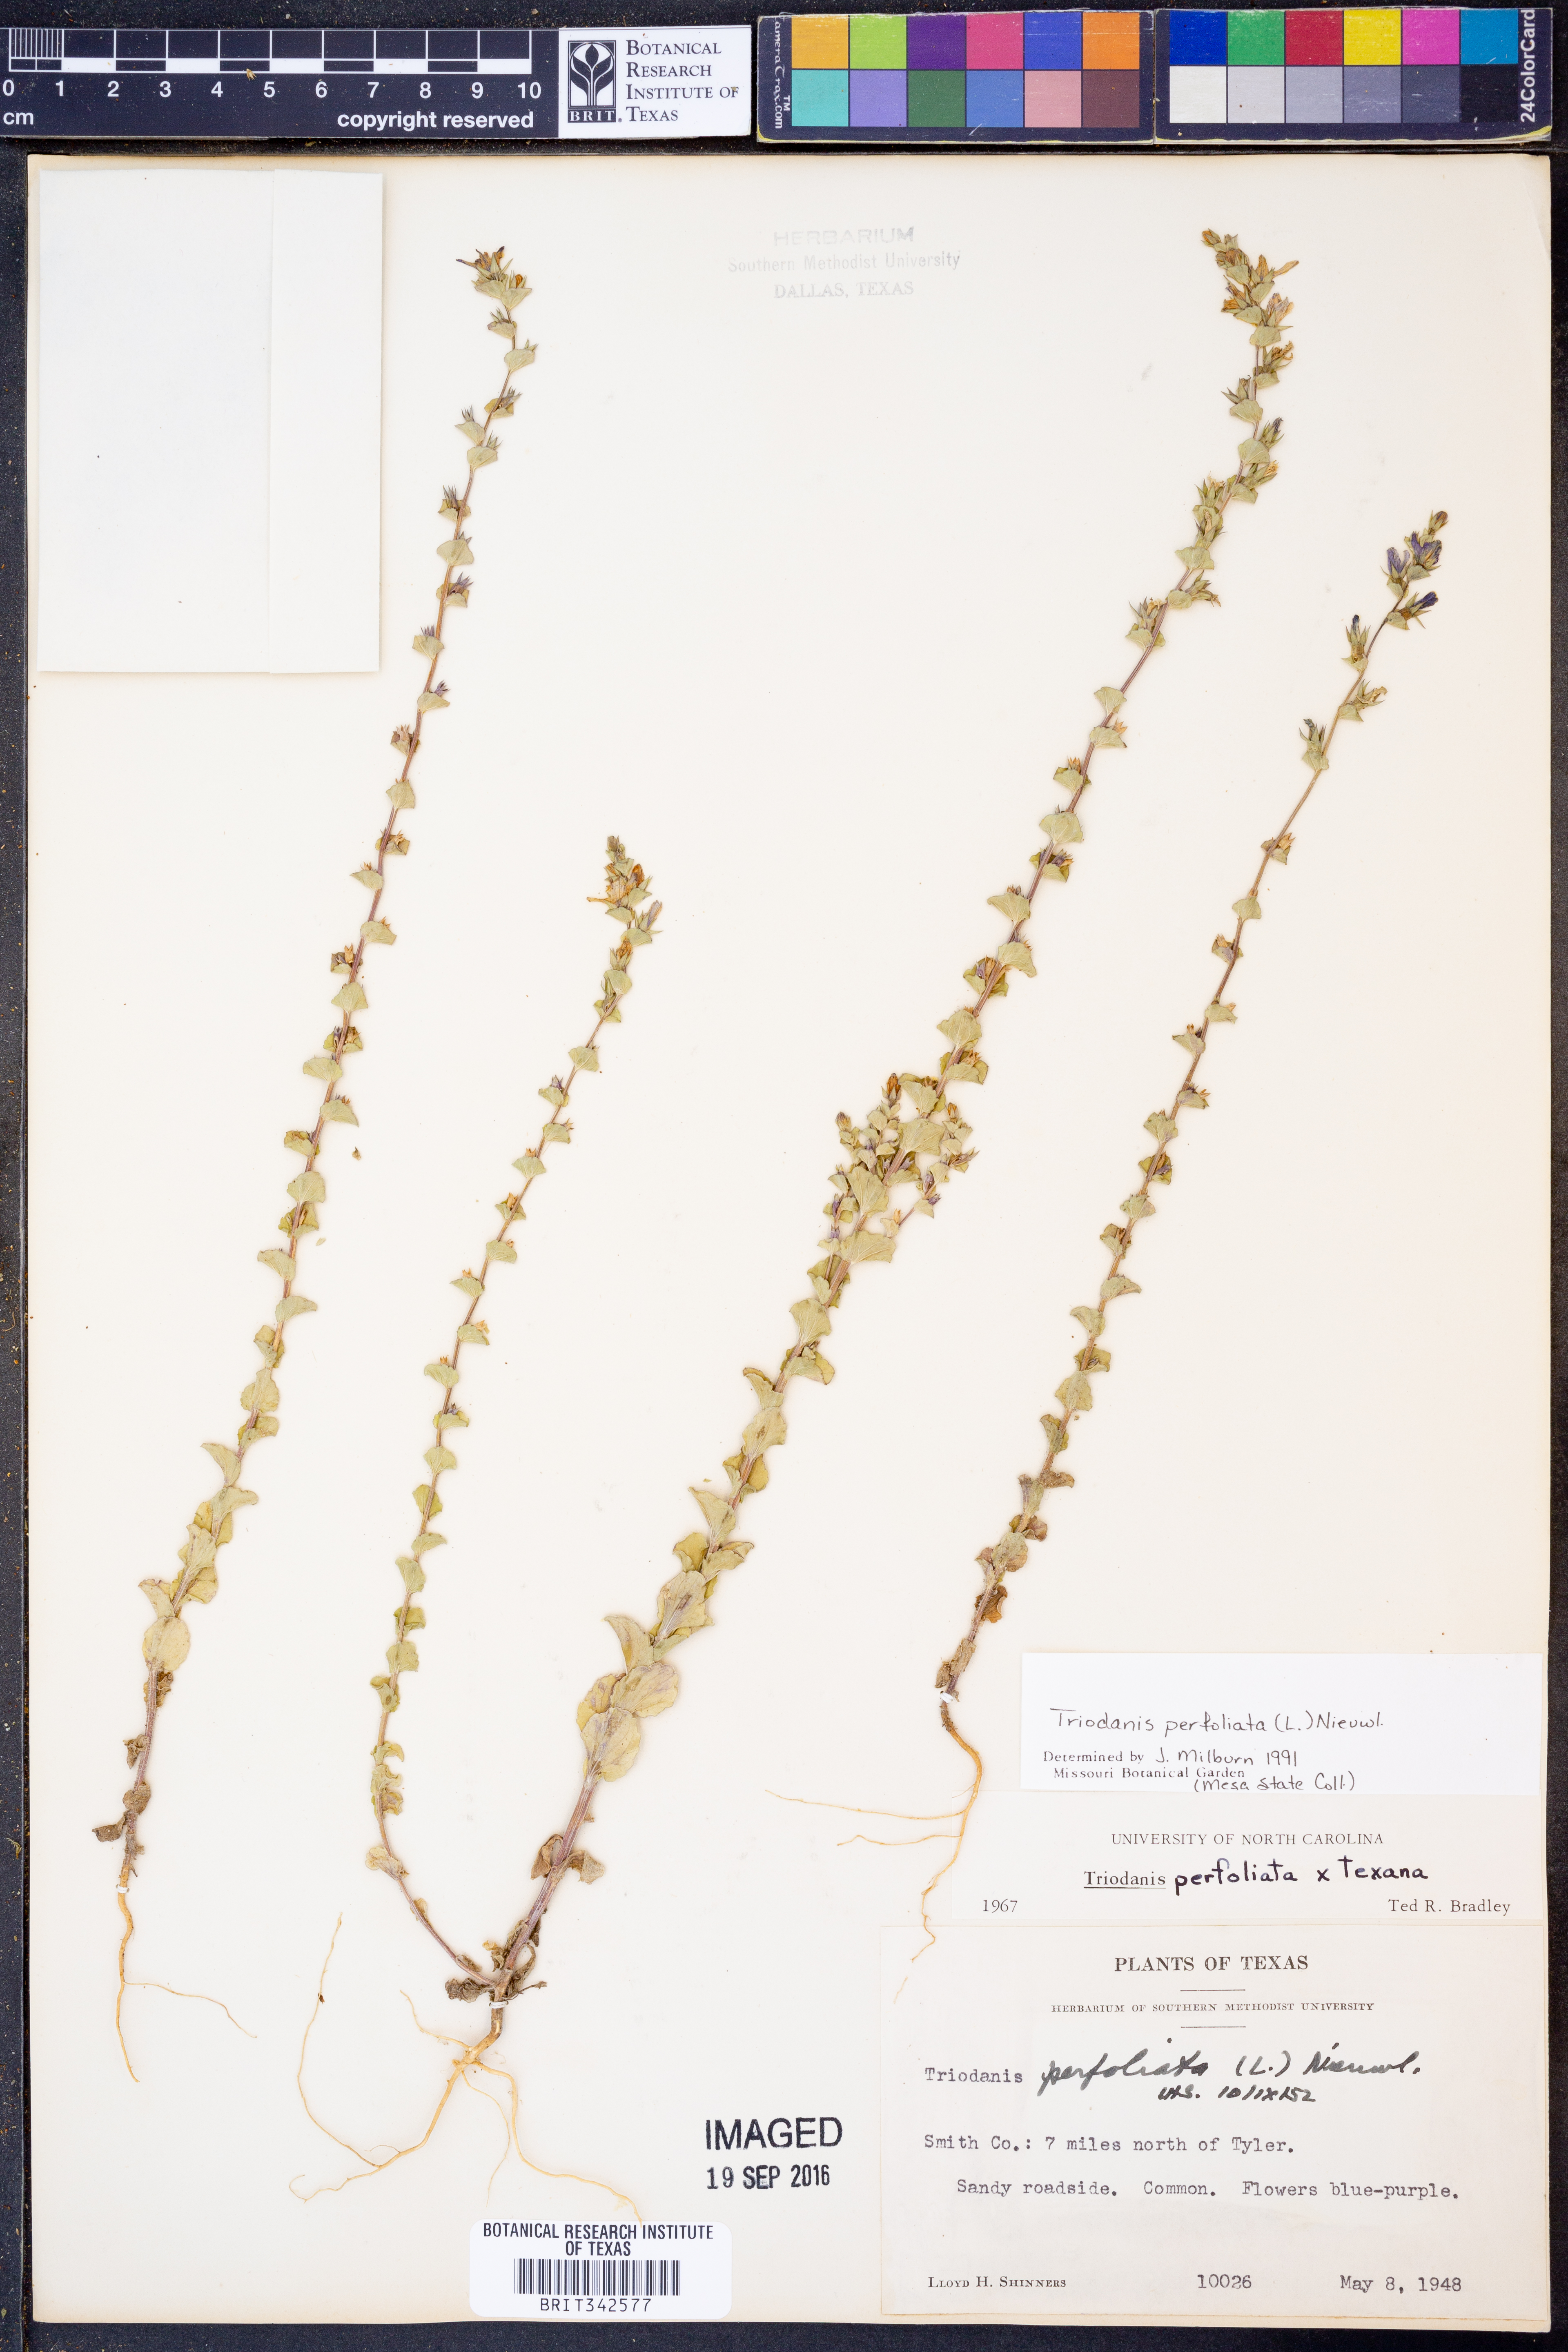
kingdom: Plantae
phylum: Tracheophyta
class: Magnoliopsida
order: Asterales
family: Campanulaceae
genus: Triodanis
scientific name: Triodanis perfoliata
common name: Clasping venus' looking-glass
